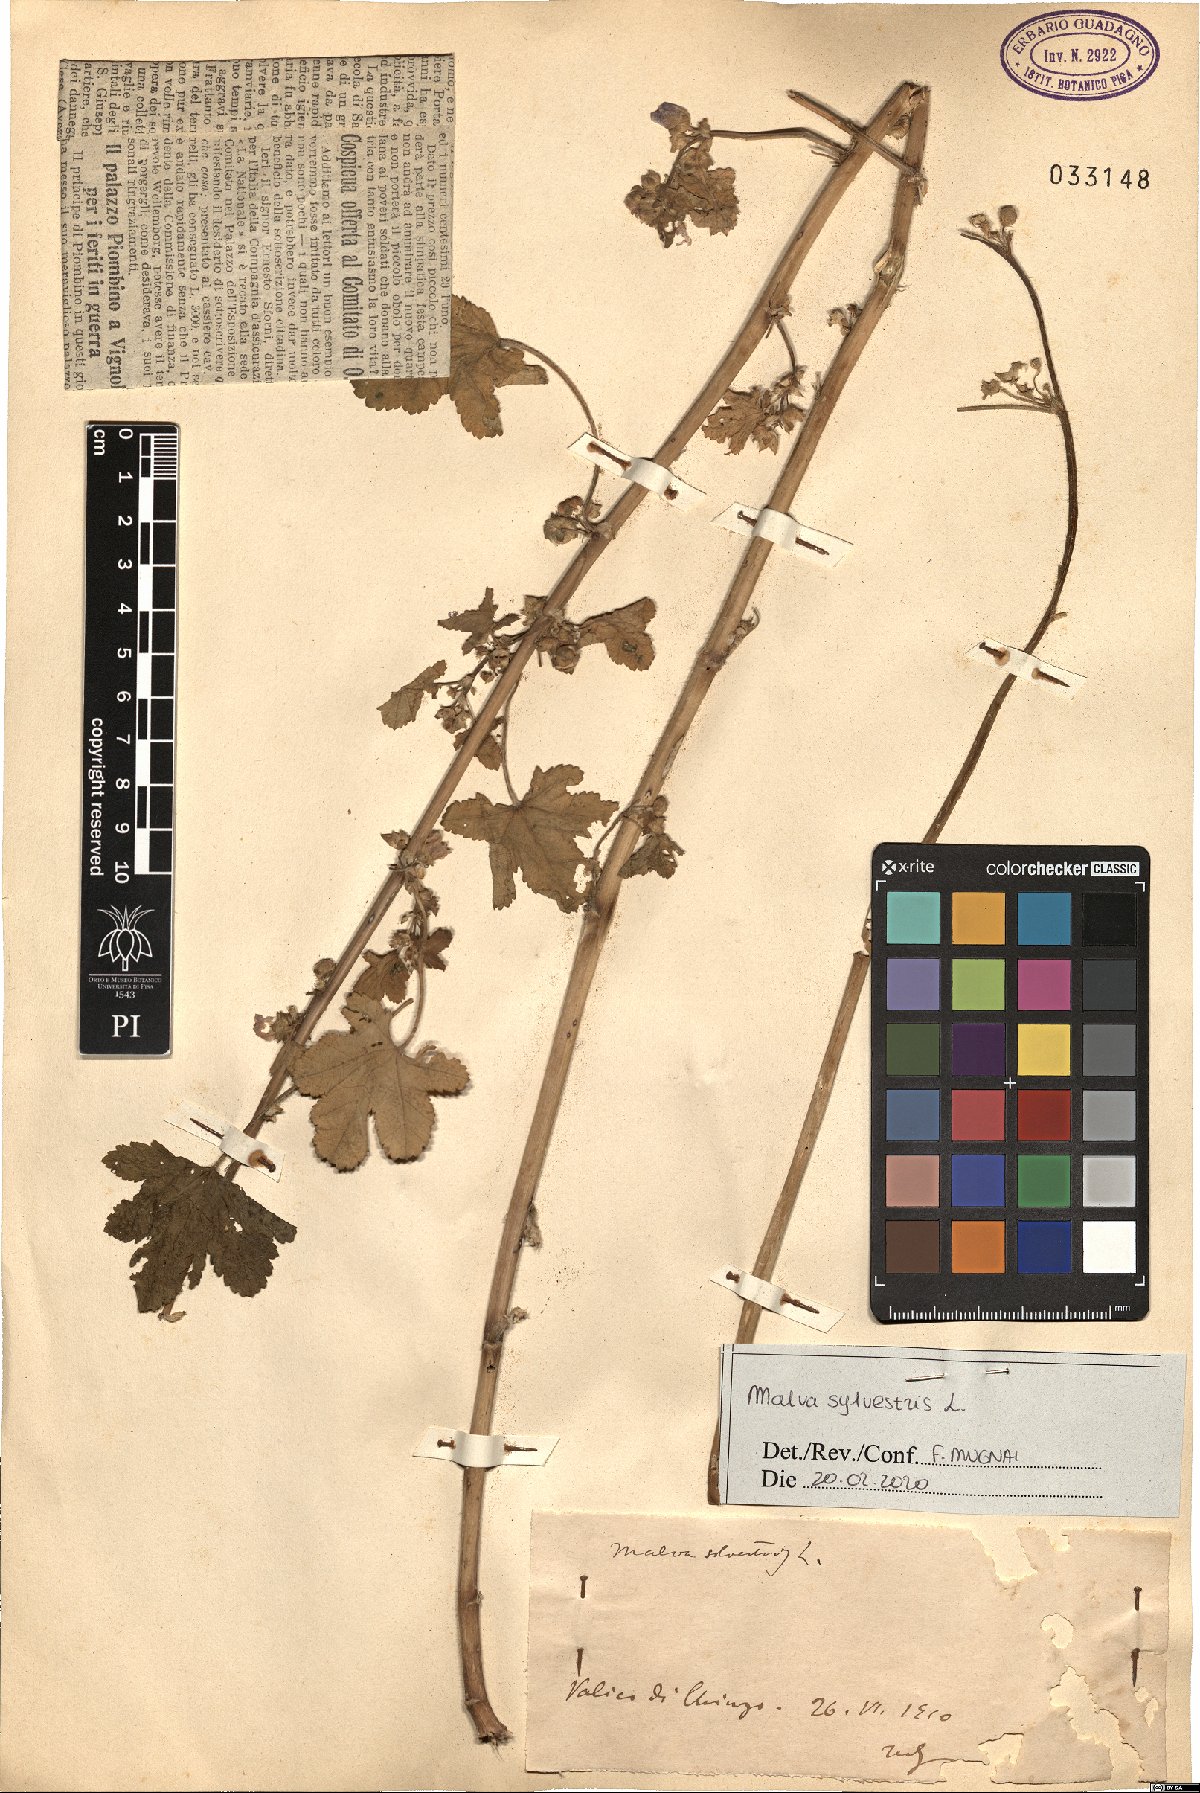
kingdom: Plantae
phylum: Tracheophyta
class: Magnoliopsida
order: Malvales
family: Malvaceae
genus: Malva
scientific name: Malva sylvestris
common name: Common mallow
